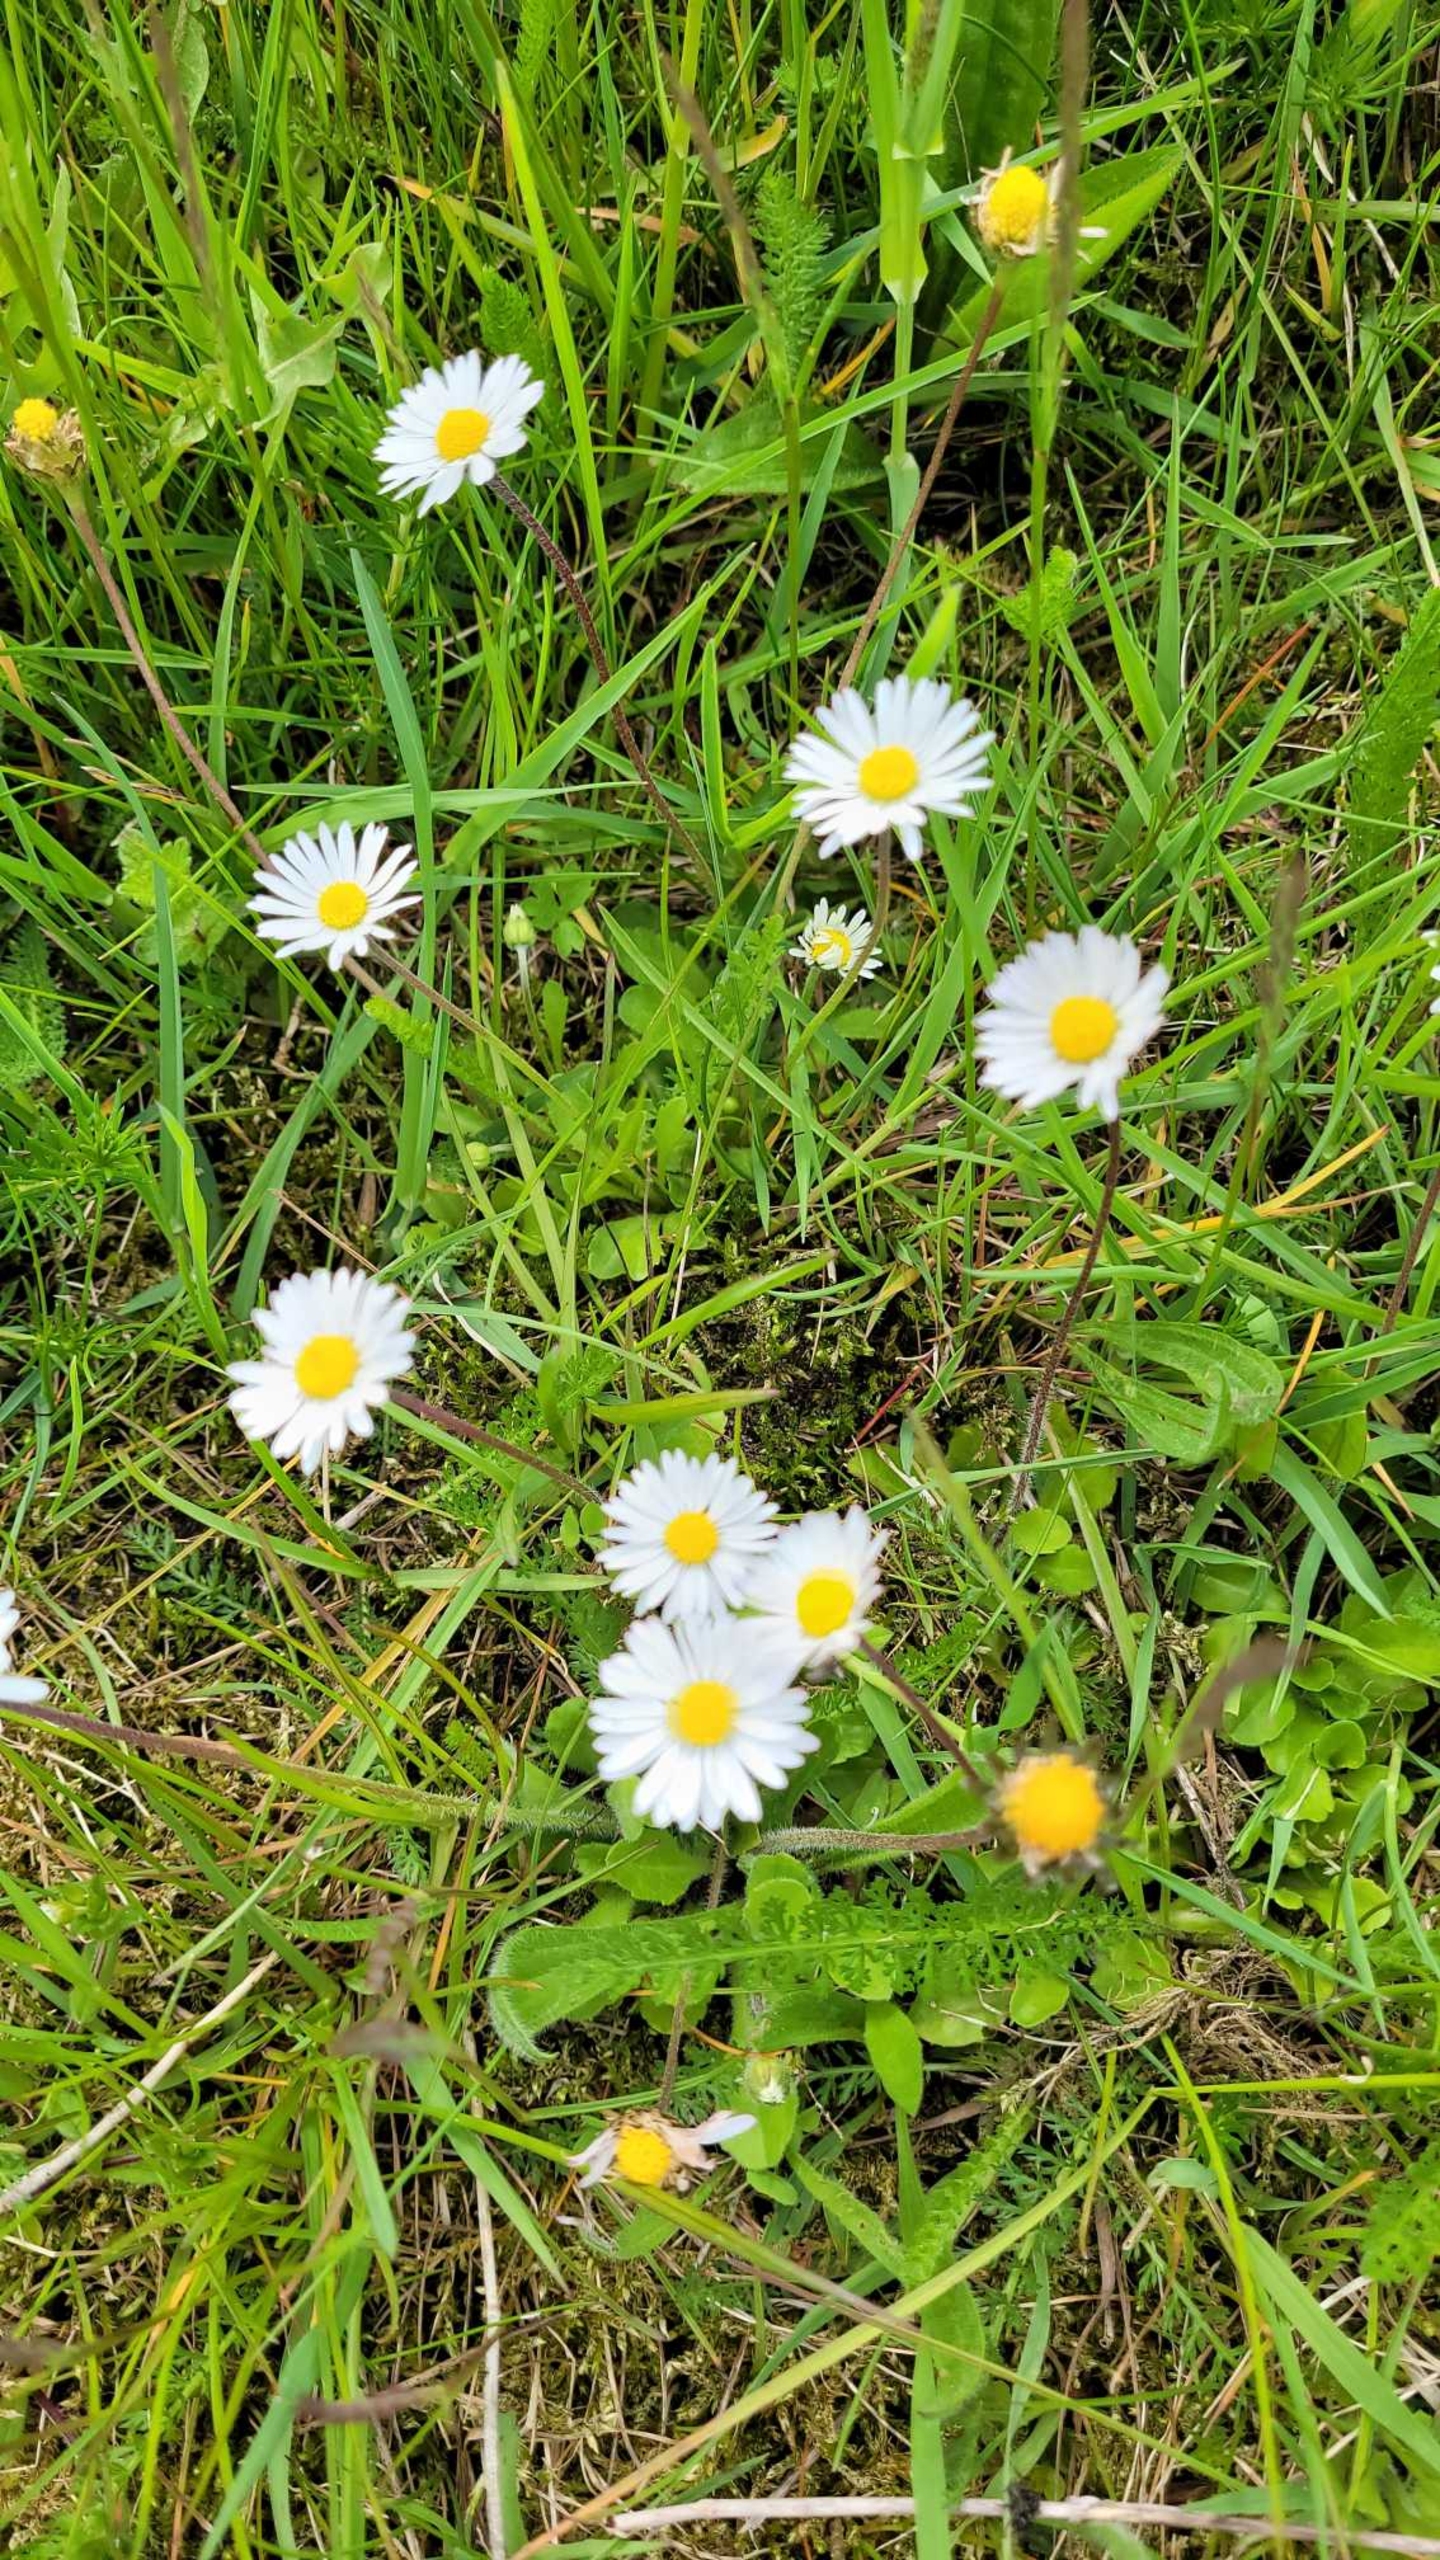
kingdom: Plantae
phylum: Tracheophyta
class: Magnoliopsida
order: Asterales
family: Asteraceae
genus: Bellis
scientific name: Bellis perennis
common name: Tusindfryd
